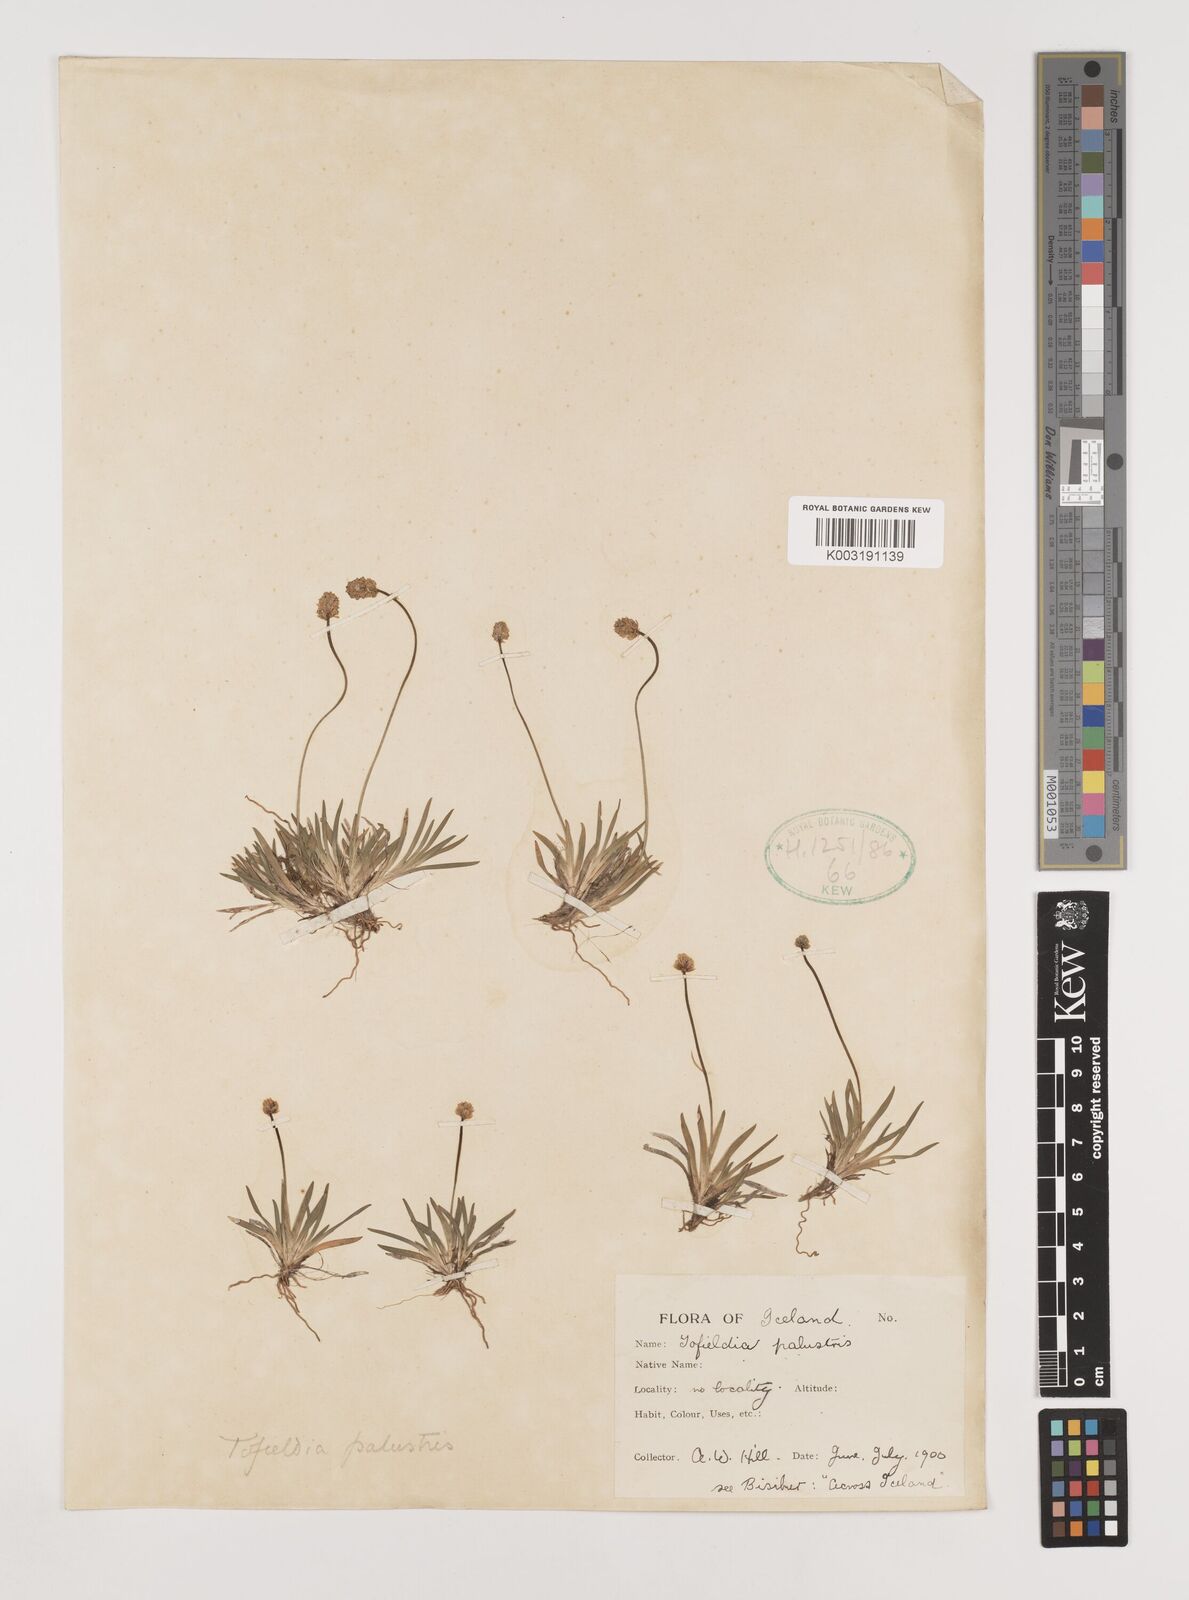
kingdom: Plantae
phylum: Tracheophyta
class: Liliopsida
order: Alismatales
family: Tofieldiaceae
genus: Tofieldia
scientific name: Tofieldia pusilla
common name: Scottish false asphodel
